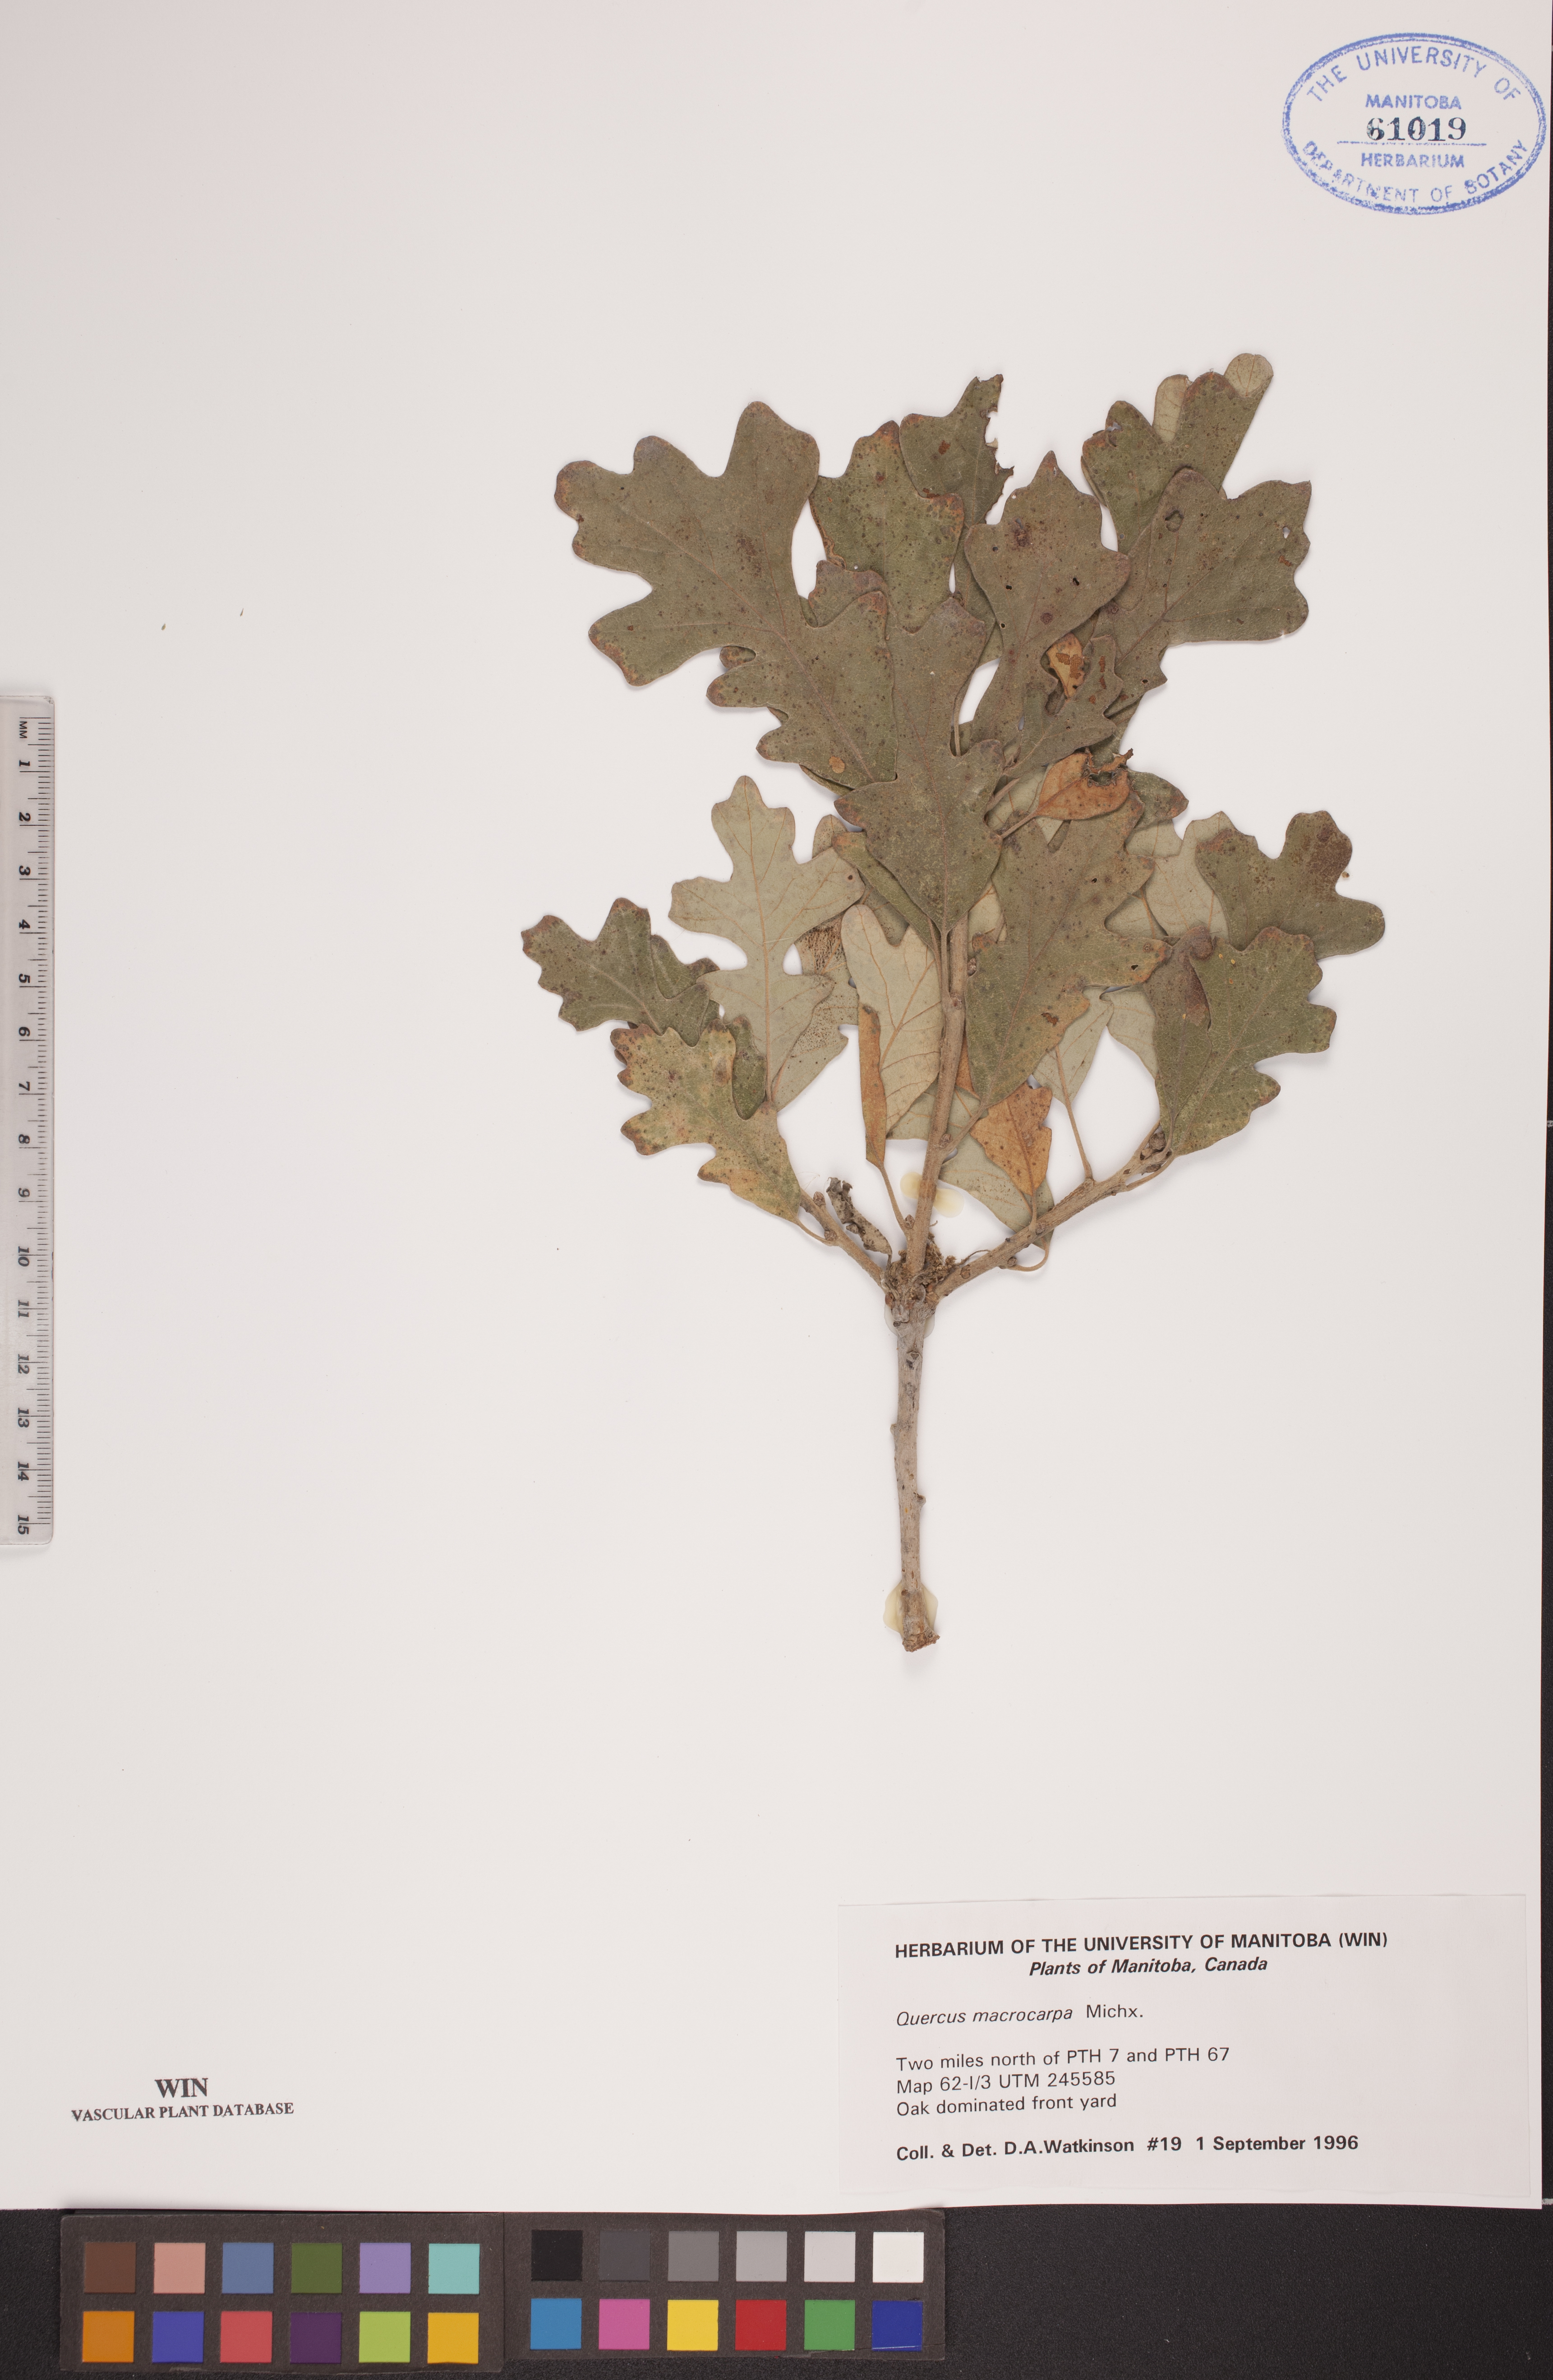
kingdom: Plantae
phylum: Tracheophyta
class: Magnoliopsida
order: Fagales
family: Fagaceae
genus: Quercus
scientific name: Quercus macrocarpa
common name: Bur oak
